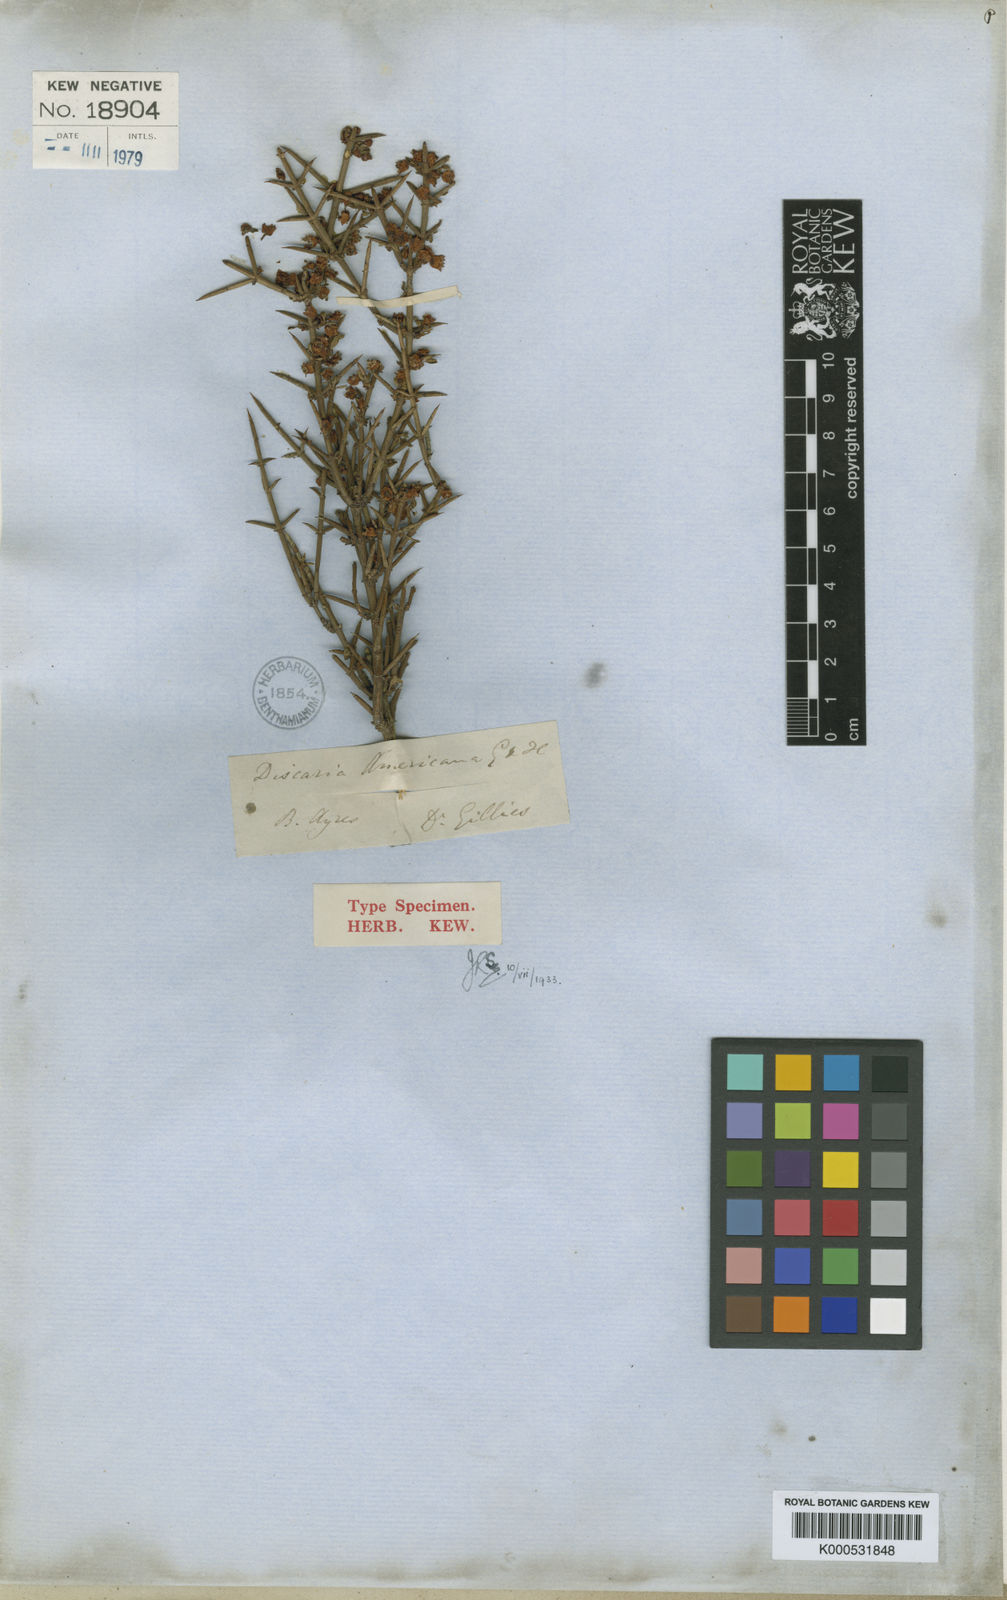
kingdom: Plantae
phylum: Tracheophyta
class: Magnoliopsida
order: Rosales
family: Rhamnaceae
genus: Discaria
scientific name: Discaria americana
